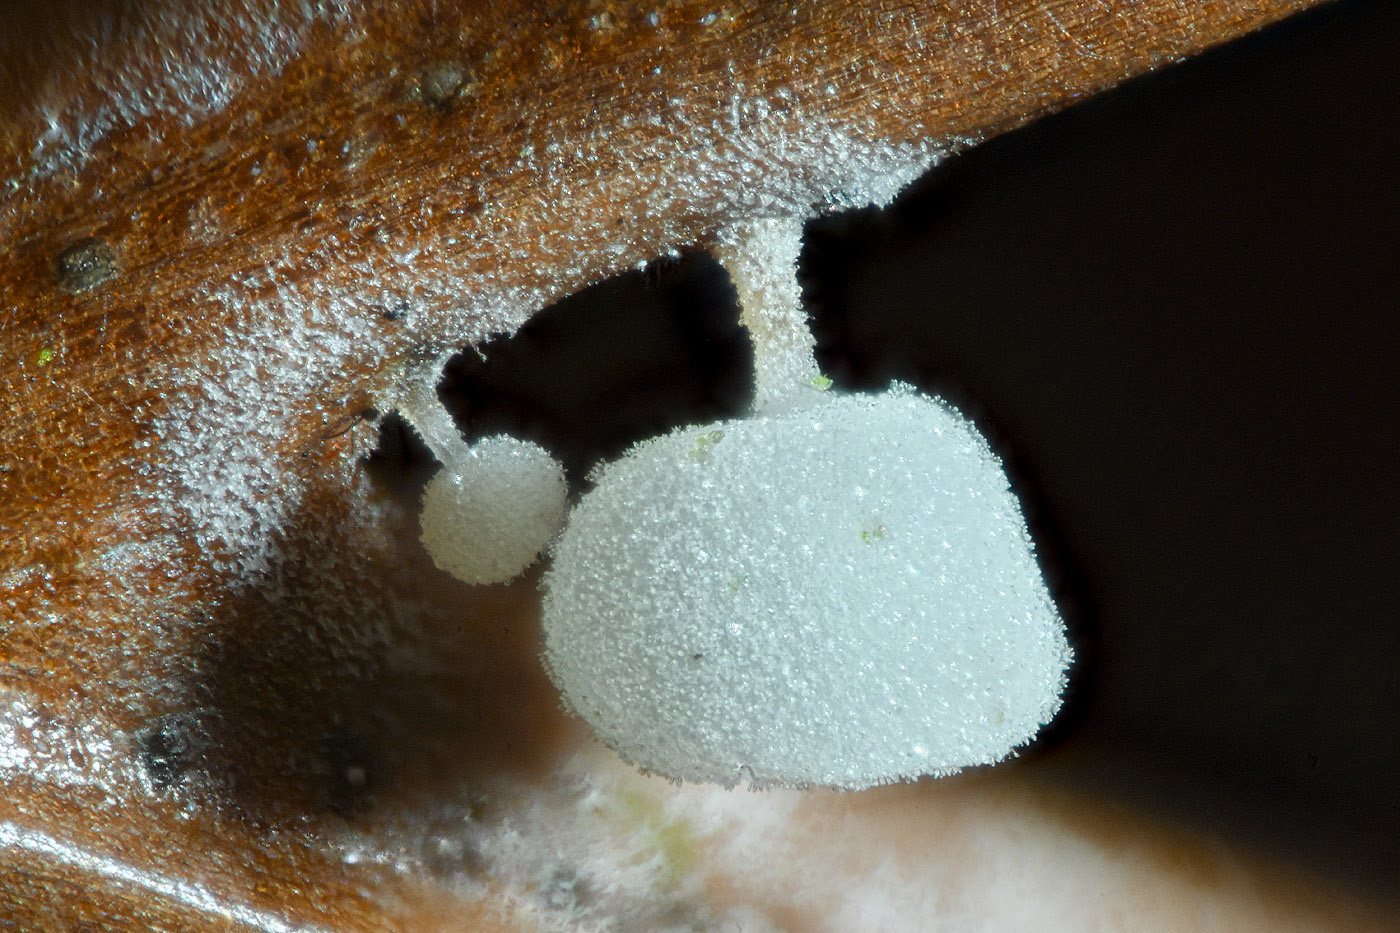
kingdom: Fungi
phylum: Basidiomycota
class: Agaricomycetes
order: Agaricales
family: Physalacriaceae
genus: Physalacria
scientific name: Physalacria cryptomeriae
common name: japangran-boldkølle
